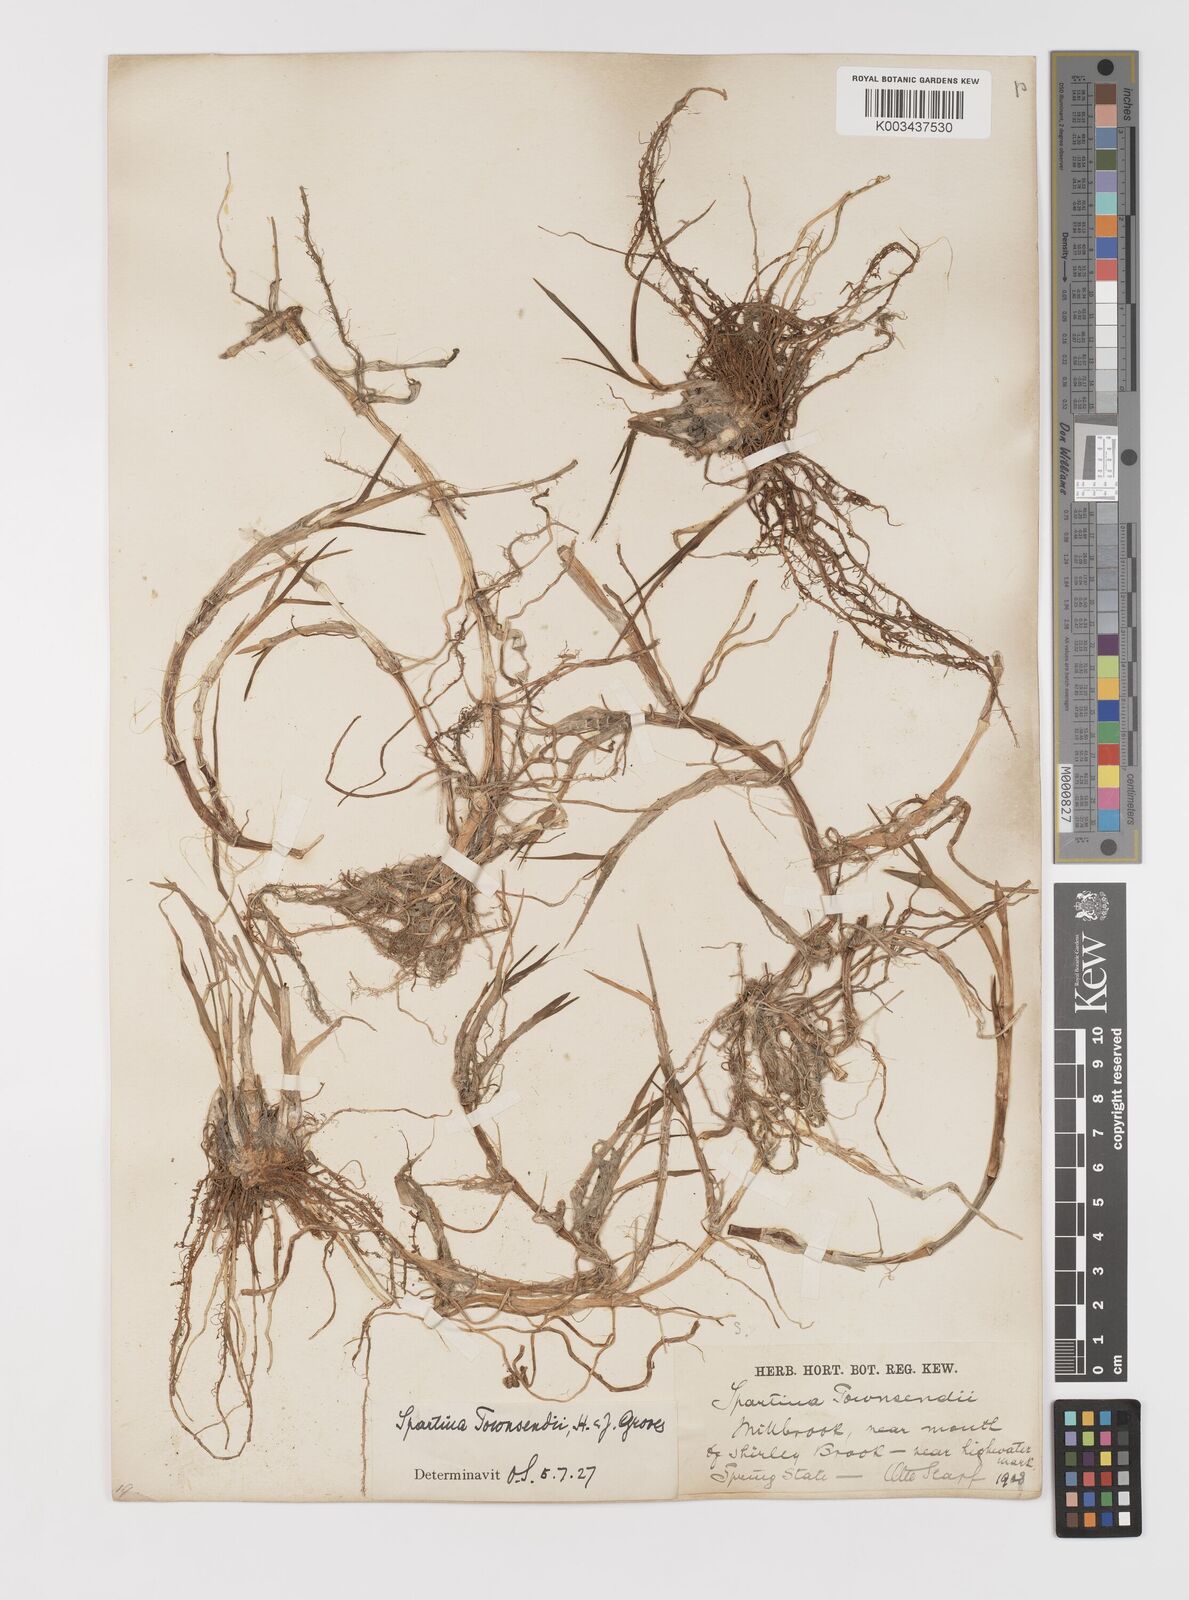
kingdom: Plantae
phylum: Tracheophyta
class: Liliopsida
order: Poales
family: Poaceae
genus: Sporobolus
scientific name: Sporobolus anglicus
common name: English cordgrass
